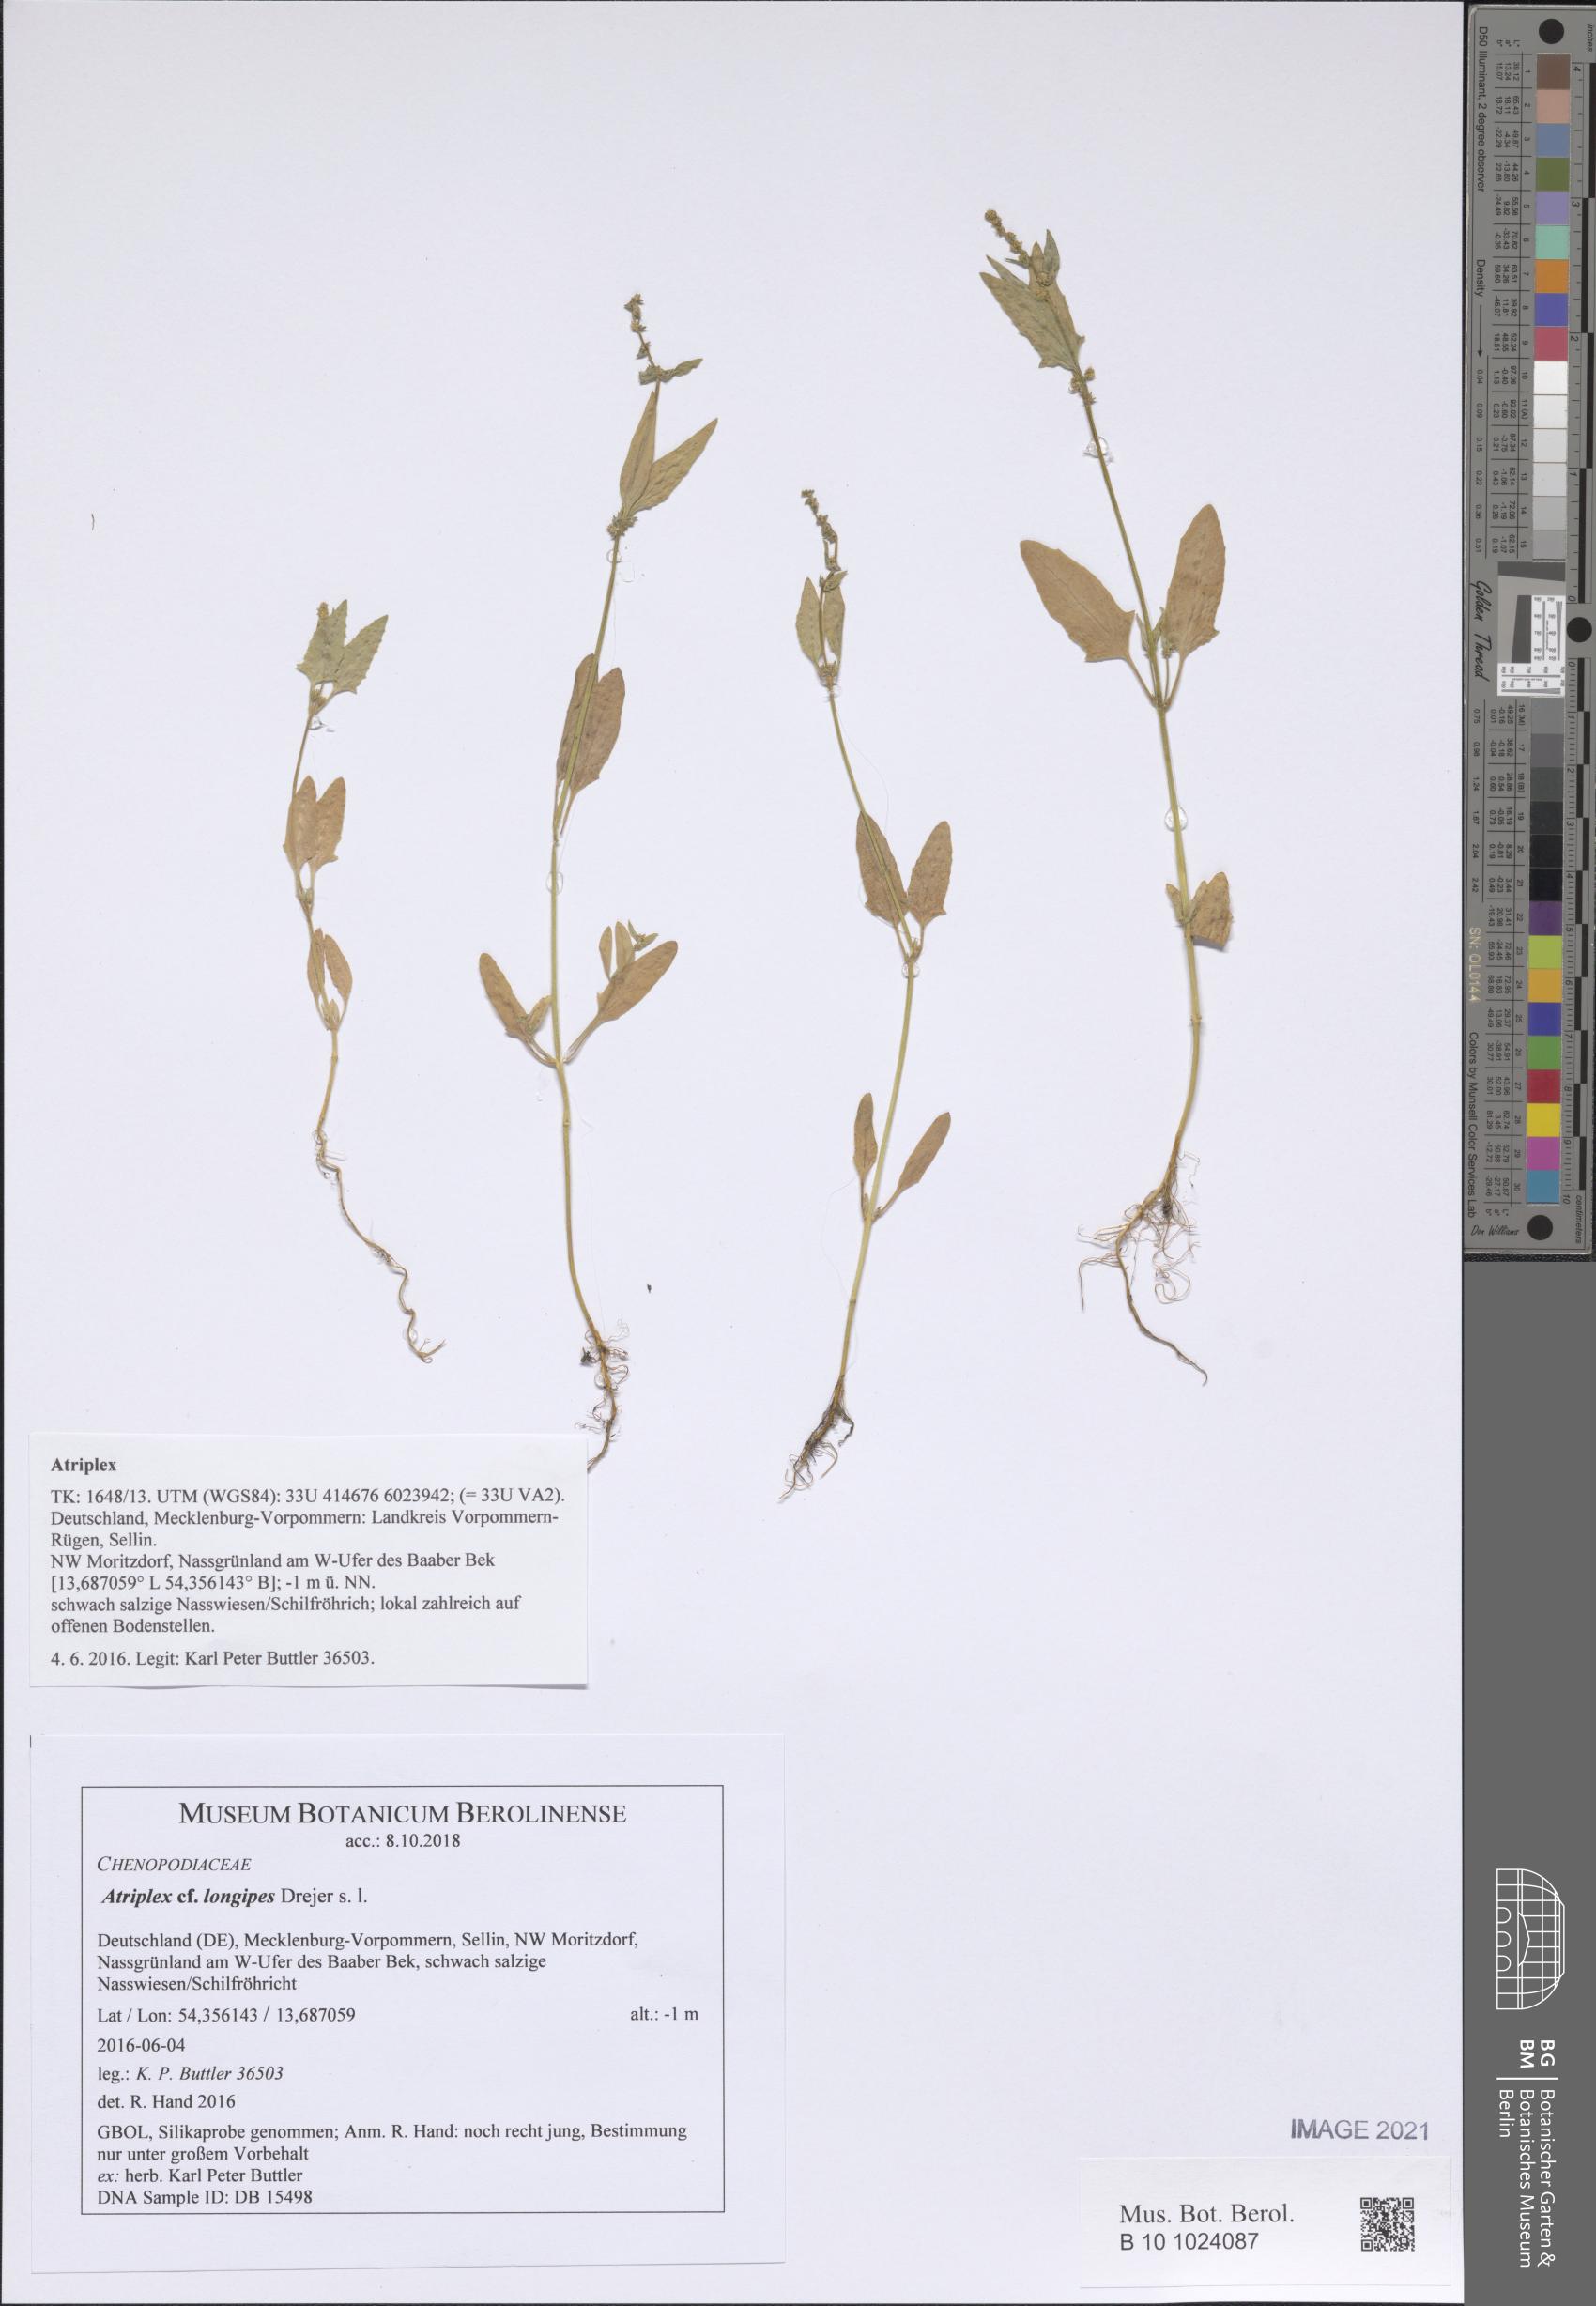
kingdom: Plantae
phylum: Tracheophyta
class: Magnoliopsida
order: Caryophyllales
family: Amaranthaceae
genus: Atriplex
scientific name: Atriplex longipes
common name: Long-stalked orache
